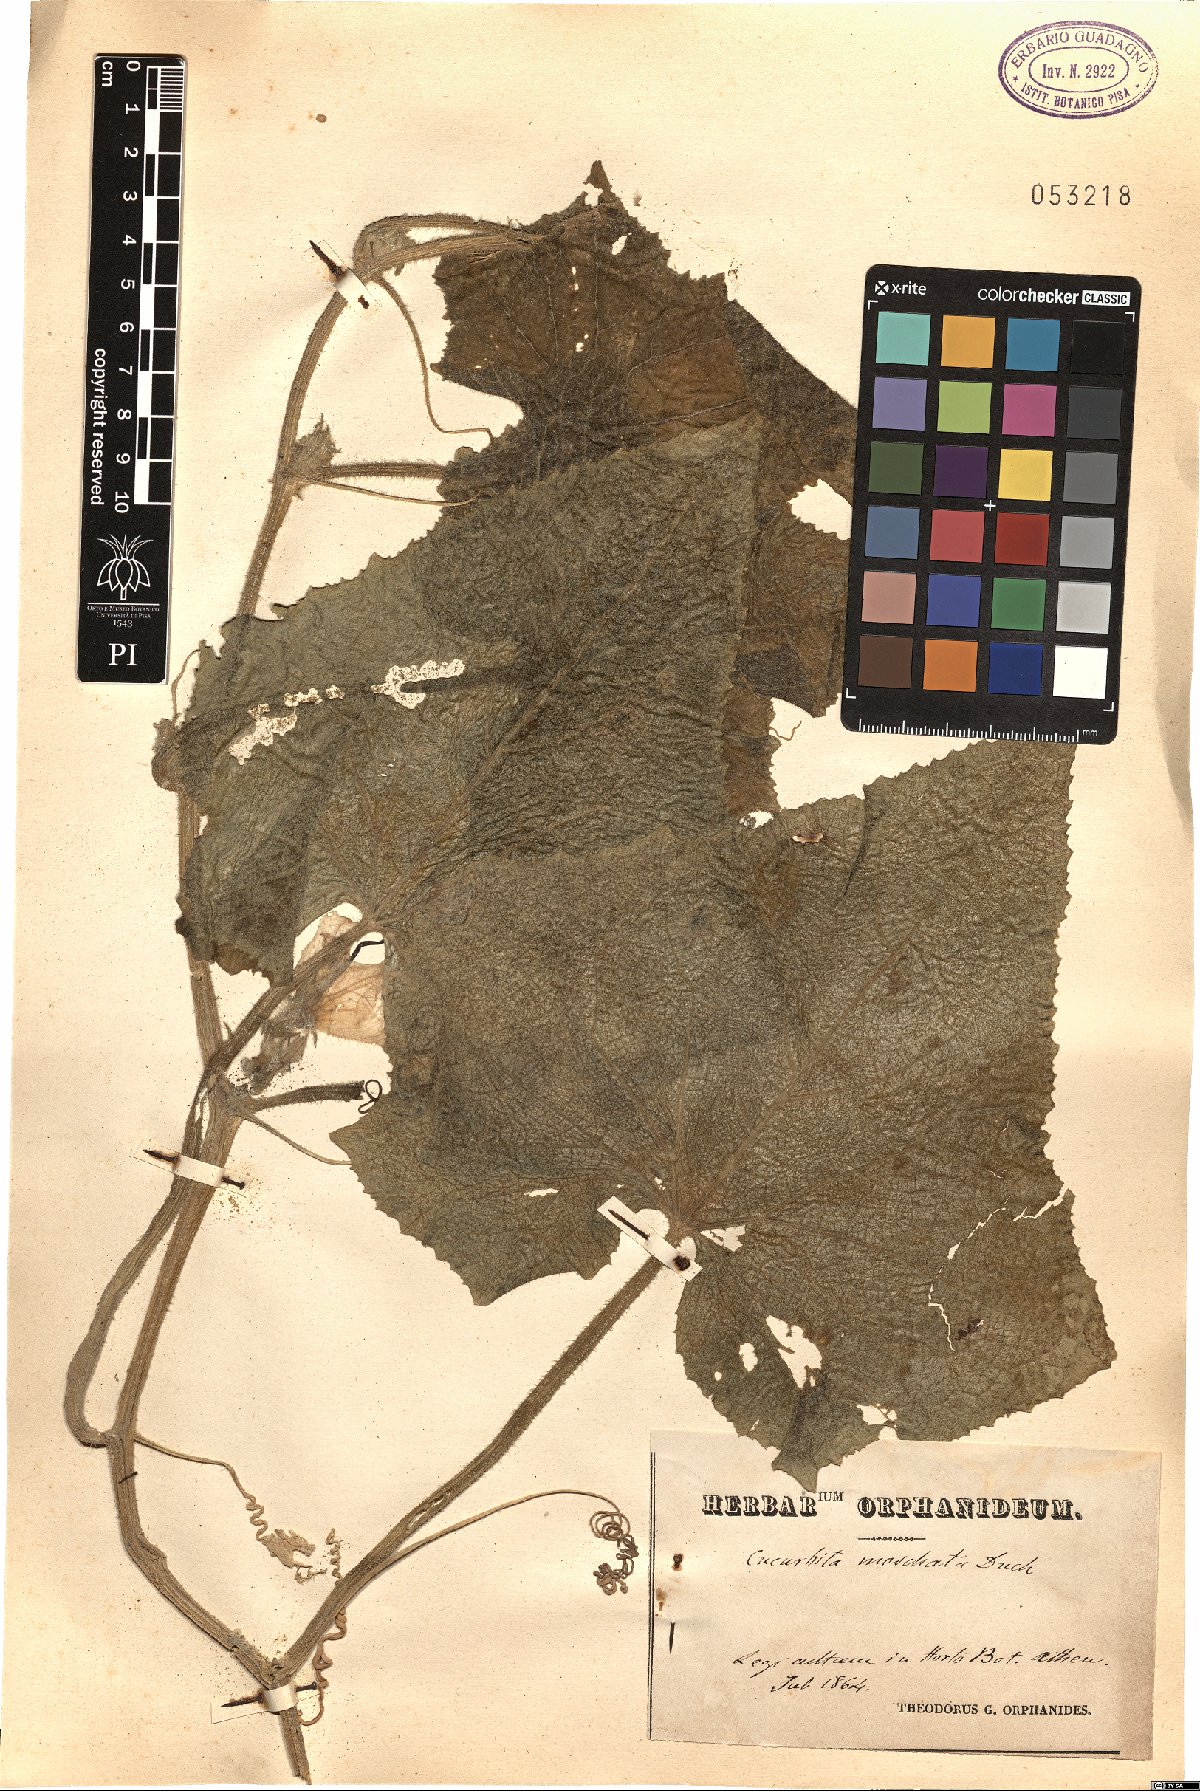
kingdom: Plantae
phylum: Tracheophyta
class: Magnoliopsida
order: Cucurbitales
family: Cucurbitaceae
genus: Cucurbita
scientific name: Cucurbita moschata
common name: Squash / pumpkin
